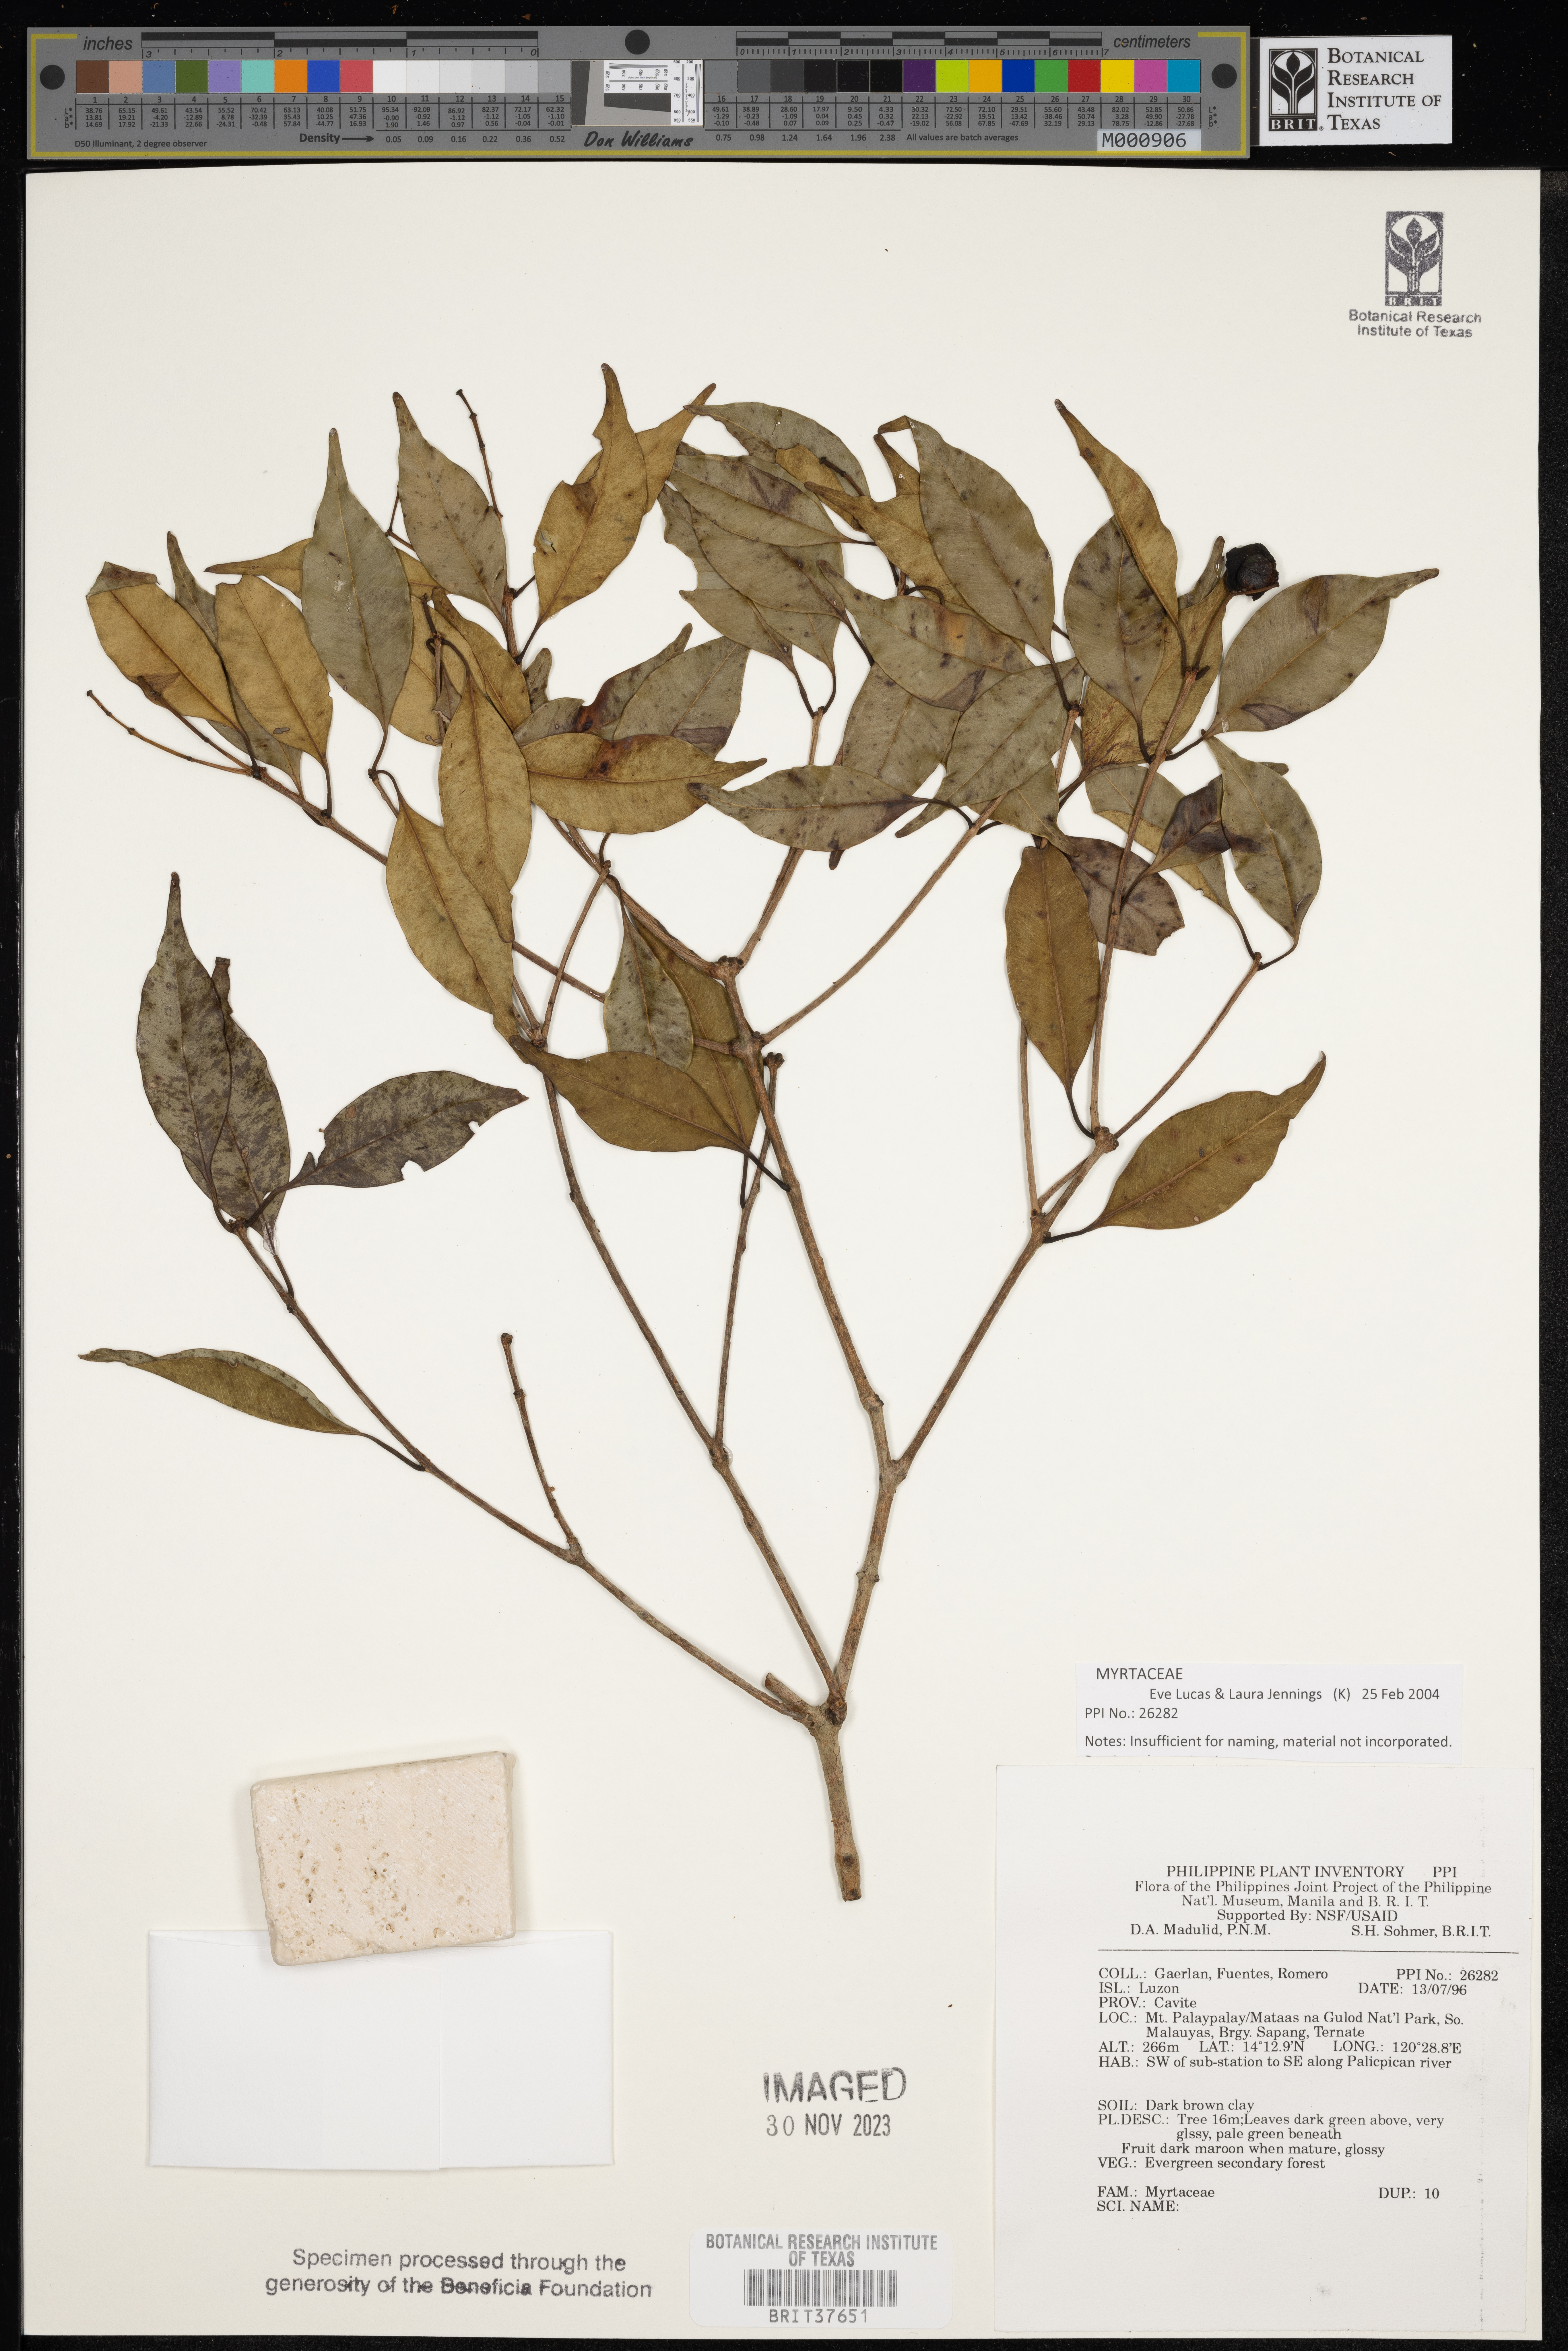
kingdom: Plantae
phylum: Tracheophyta
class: Magnoliopsida
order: Myrtales
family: Myrtaceae
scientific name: Myrtaceae
